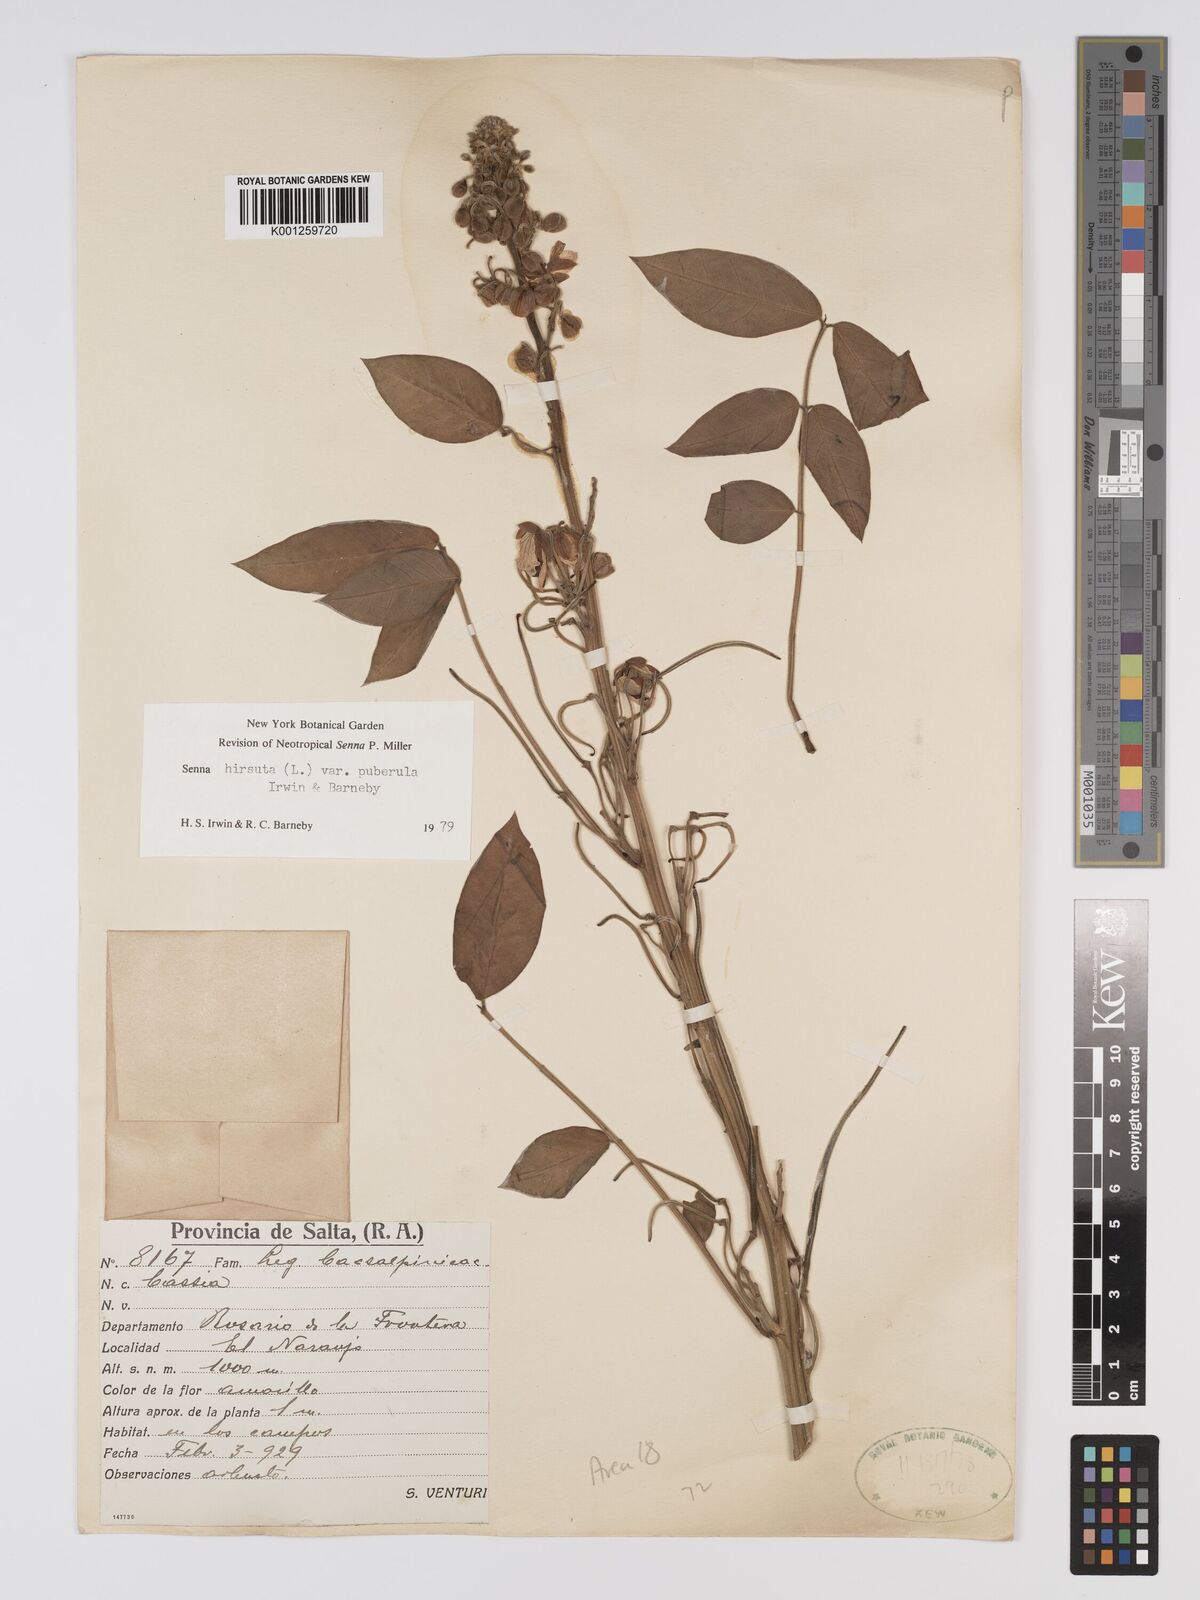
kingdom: Plantae
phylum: Tracheophyta
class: Magnoliopsida
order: Fabales
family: Fabaceae
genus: Senna
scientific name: Senna hirsuta
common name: Woolly senna
